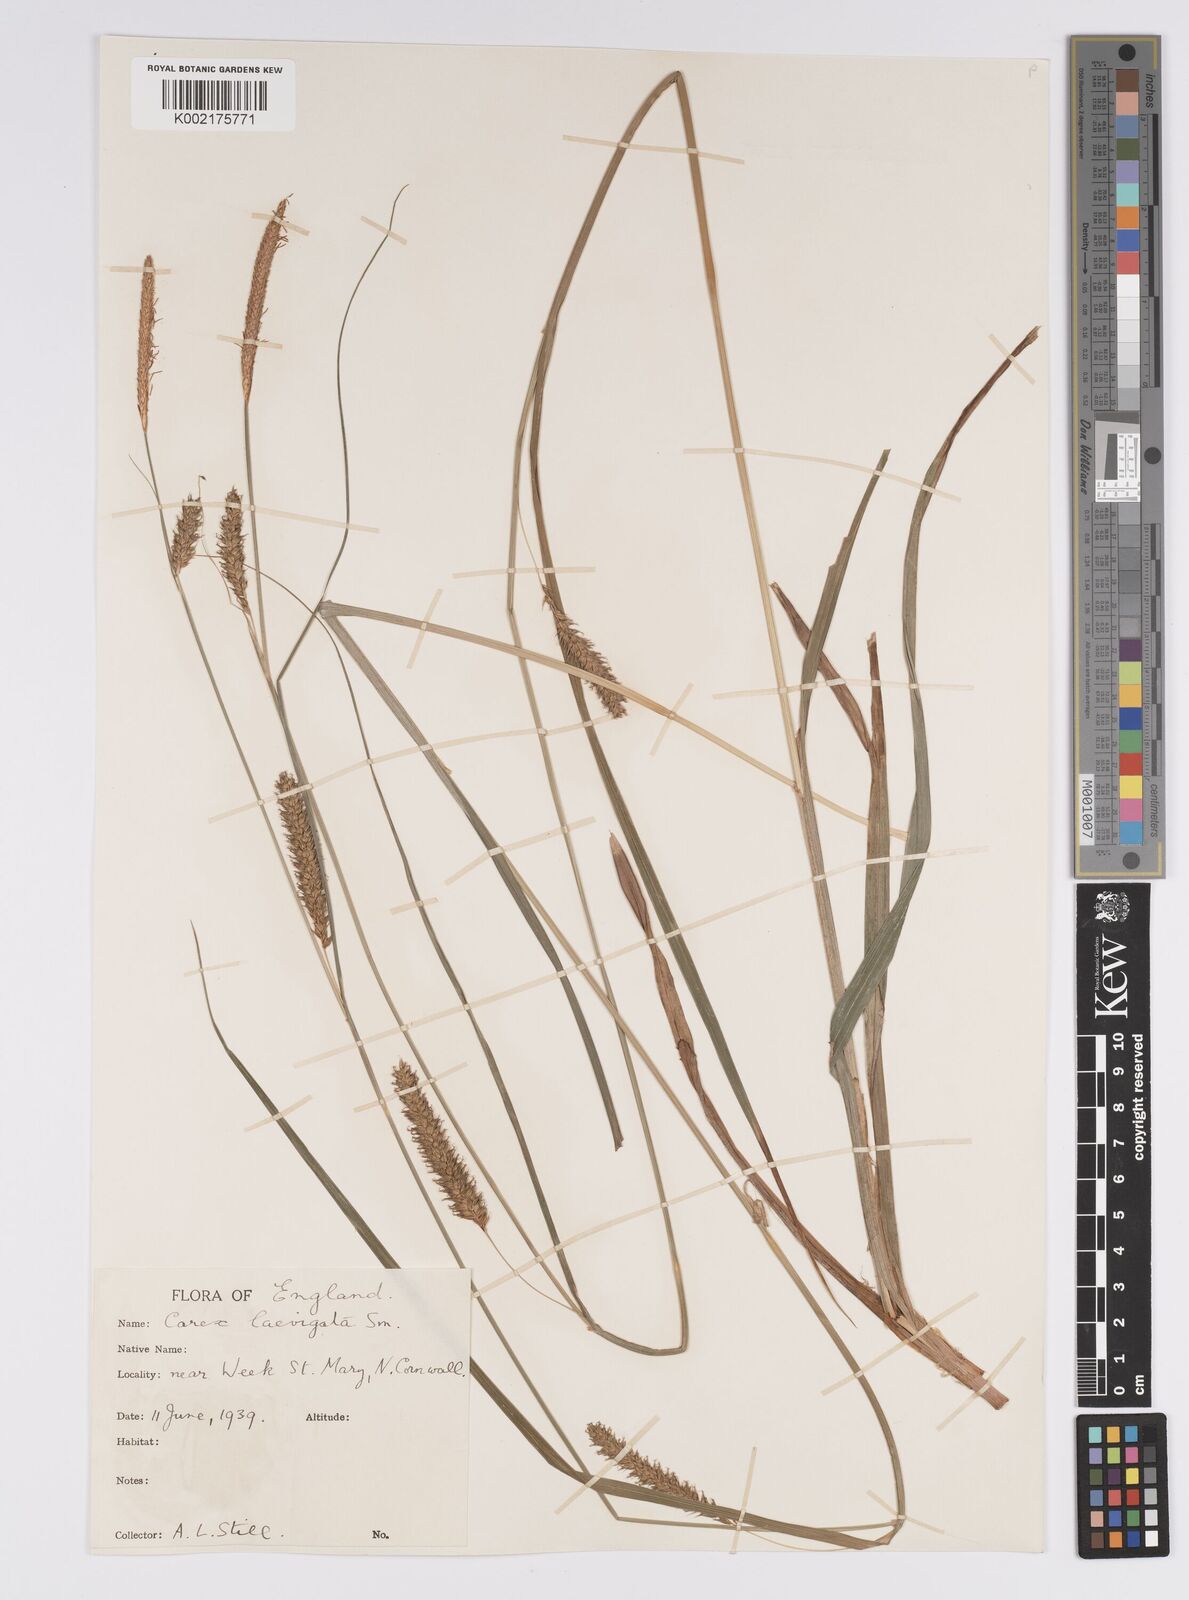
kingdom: Plantae
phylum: Tracheophyta
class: Liliopsida
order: Poales
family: Cyperaceae
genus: Carex
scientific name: Carex laevigata
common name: Smooth-stalked sedge
